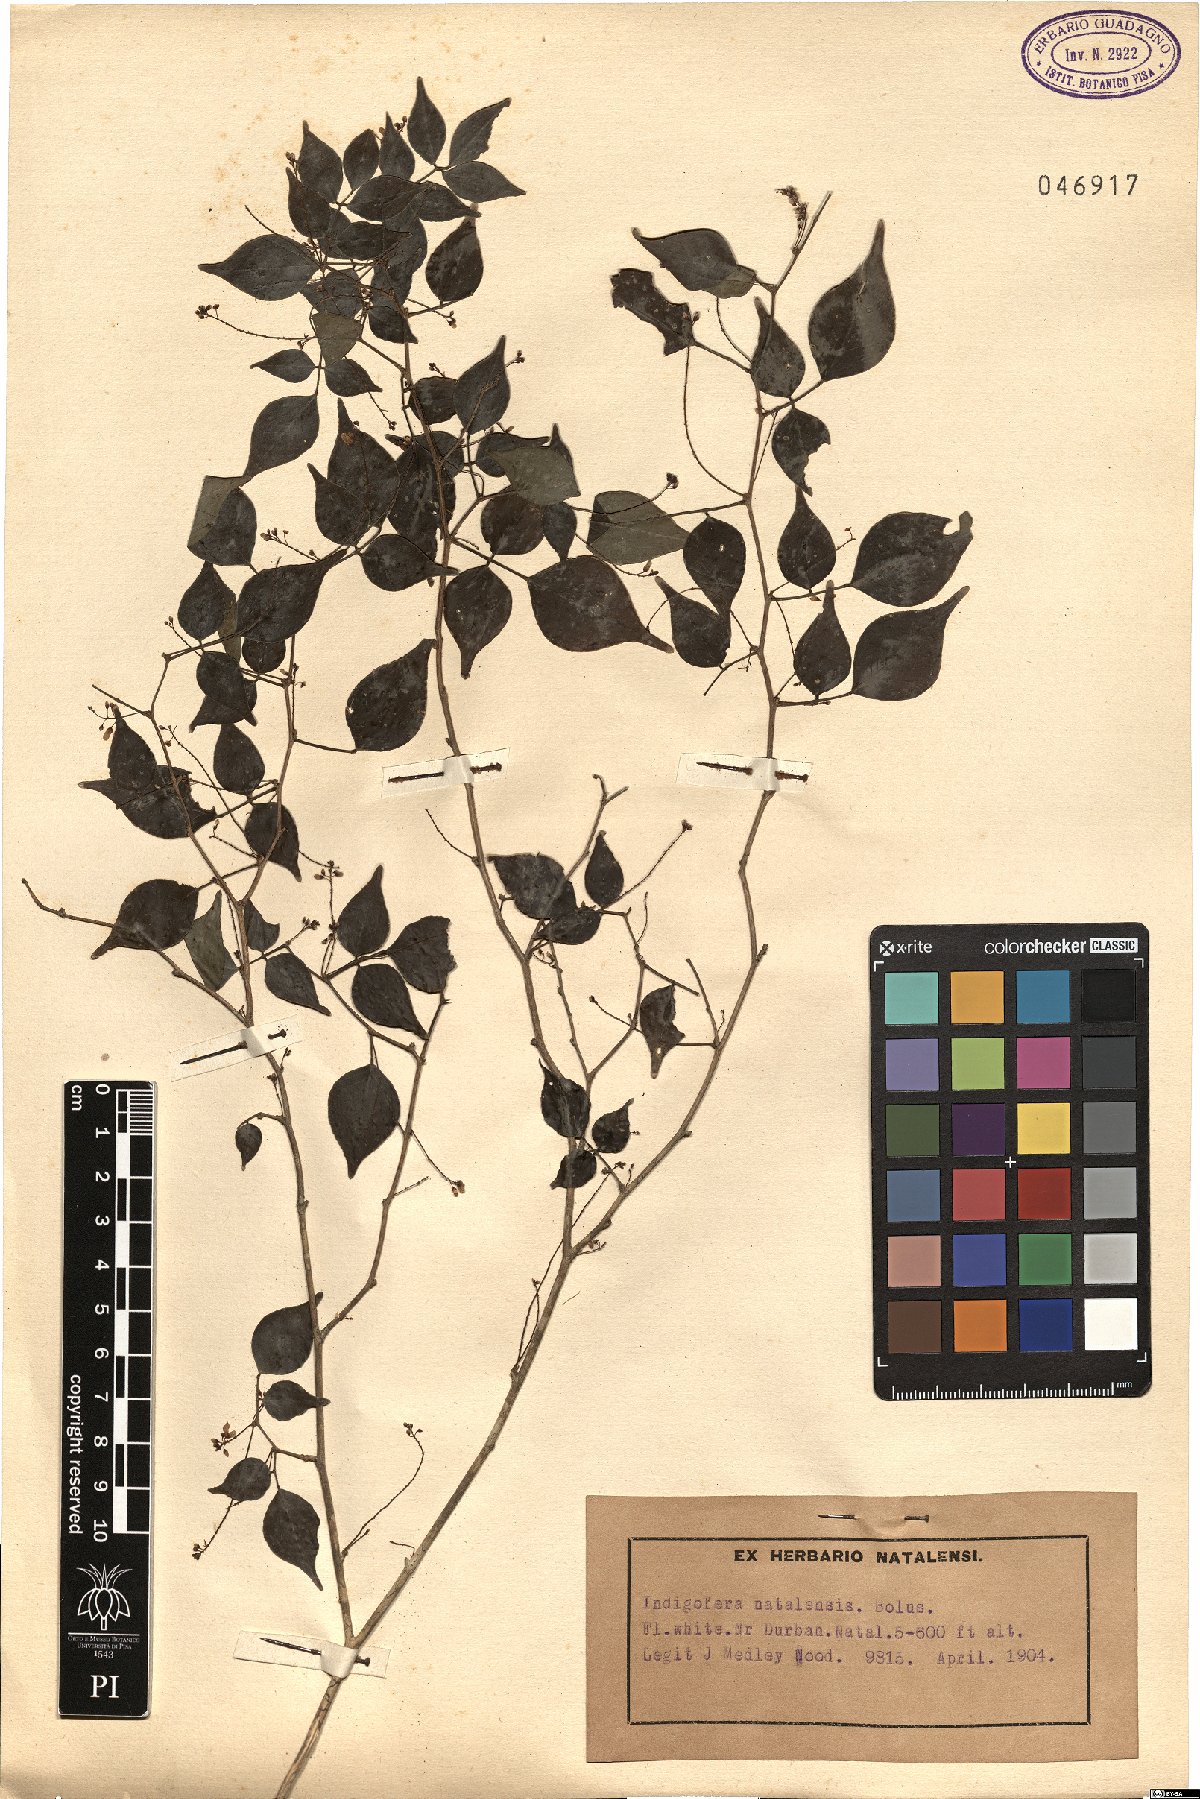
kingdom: Plantae
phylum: Tracheophyta
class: Magnoliopsida
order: Fabales
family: Fabaceae
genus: Indigofera
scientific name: Indigofera natalensis
